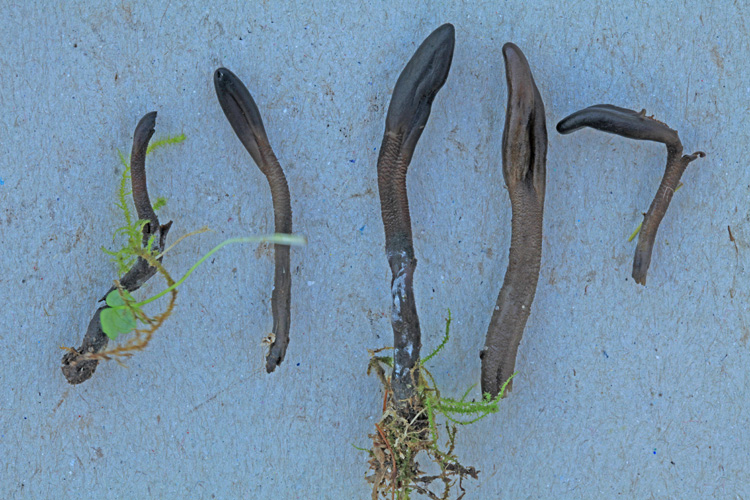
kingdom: Fungi
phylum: Ascomycota
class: Geoglossomycetes
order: Geoglossales
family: Geoglossaceae
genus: Geoglossum
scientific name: Geoglossum fallax
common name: småskællet jordtunge
